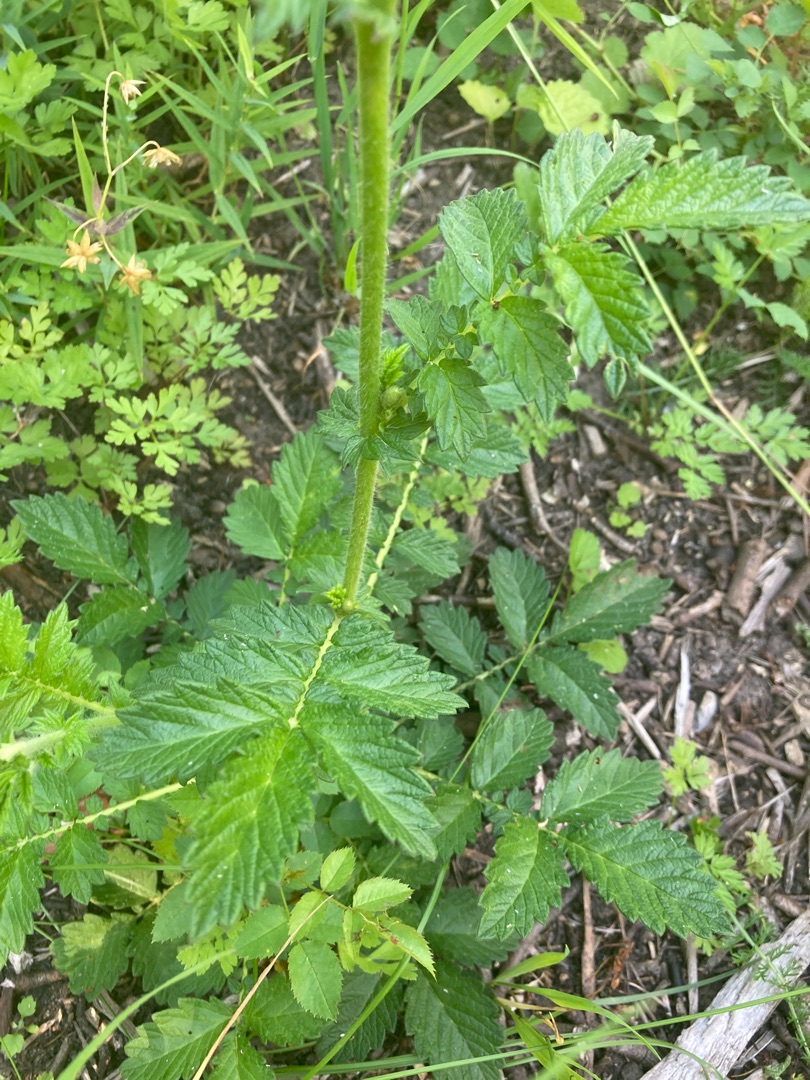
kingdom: Plantae
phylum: Tracheophyta
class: Magnoliopsida
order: Rosales
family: Rosaceae
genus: Agrimonia
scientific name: Agrimonia eupatoria
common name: Almindelig agermåne
